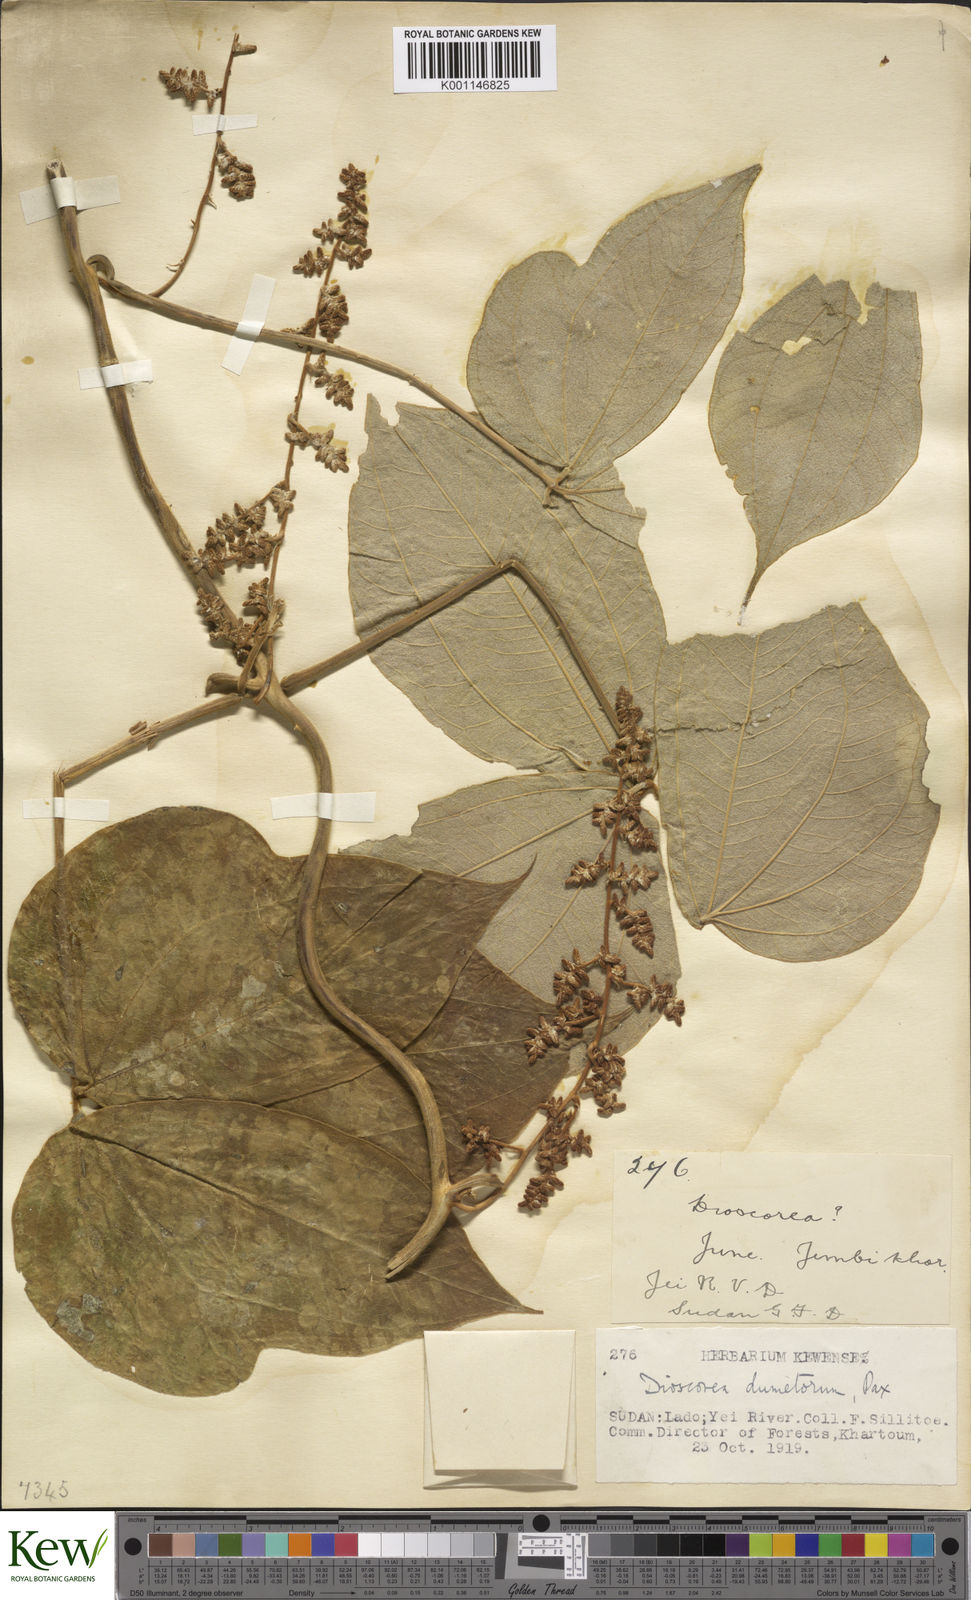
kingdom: Plantae
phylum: Tracheophyta
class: Liliopsida
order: Dioscoreales
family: Dioscoreaceae
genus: Dioscorea
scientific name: Dioscorea dumetorum
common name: African bitter yam
